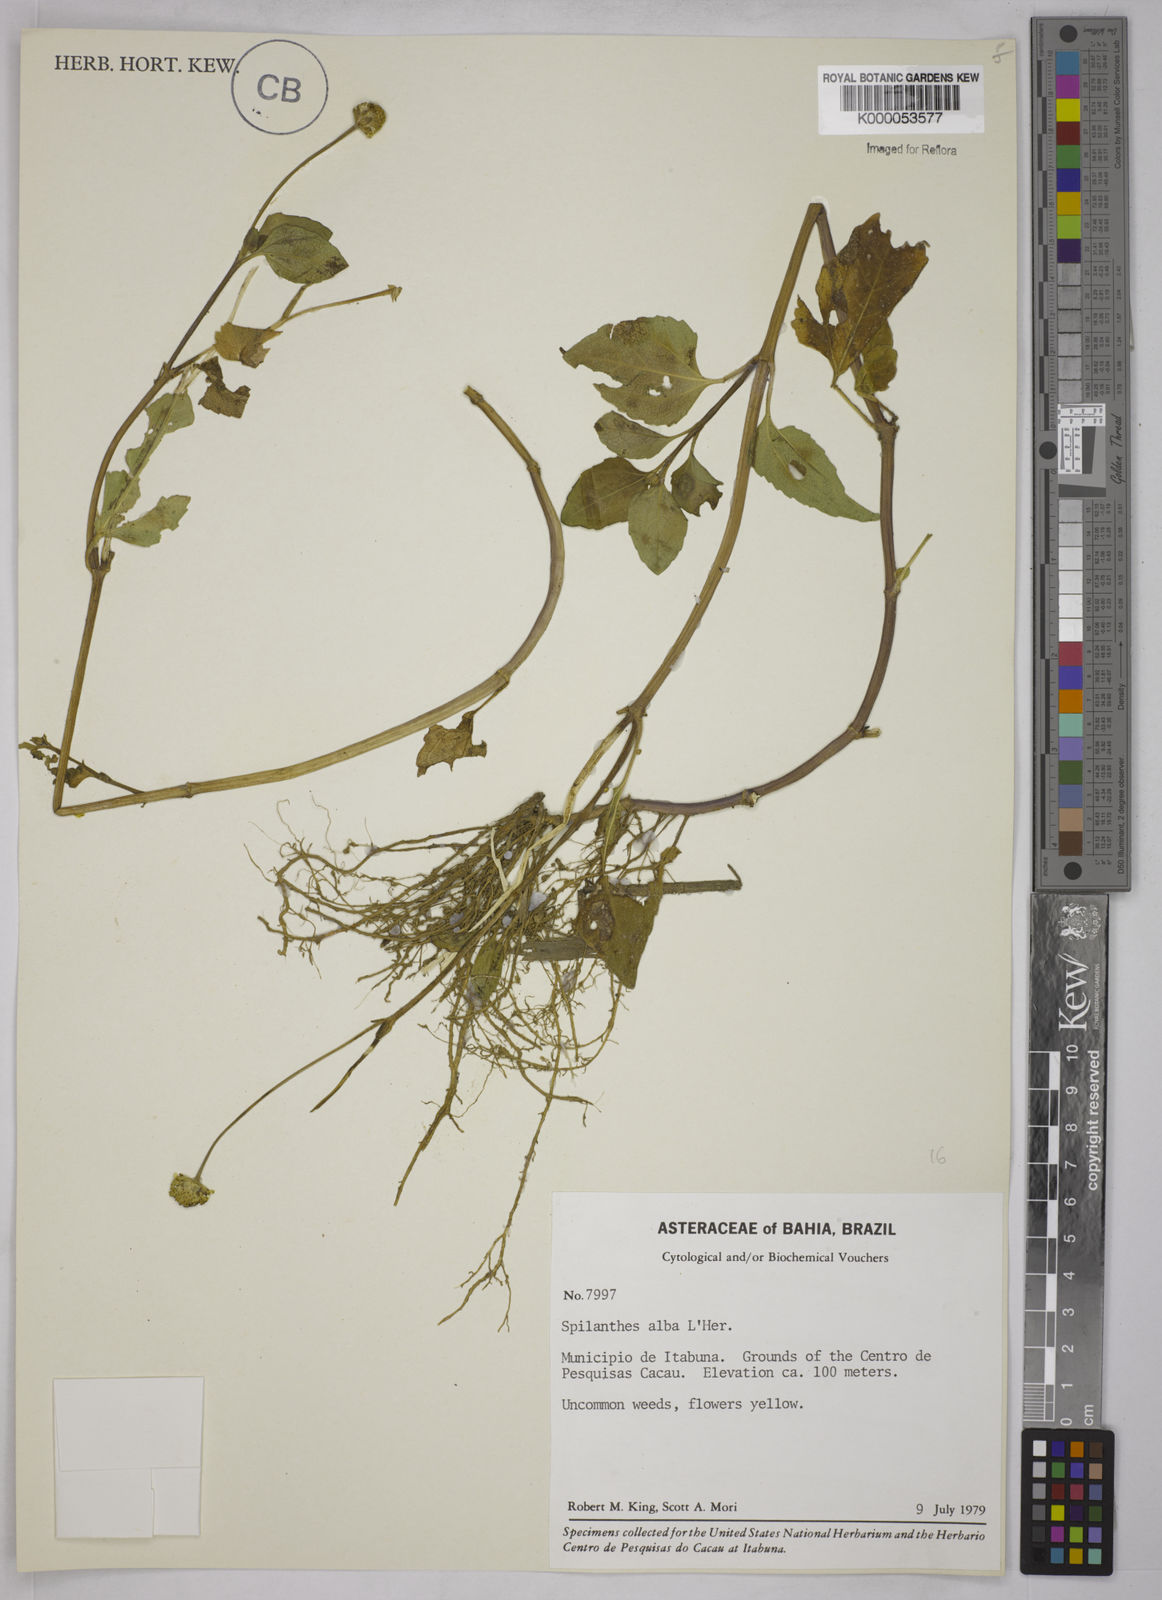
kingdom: Plantae
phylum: Tracheophyta
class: Magnoliopsida
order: Asterales
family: Asteraceae
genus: Acmella
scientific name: Acmella
